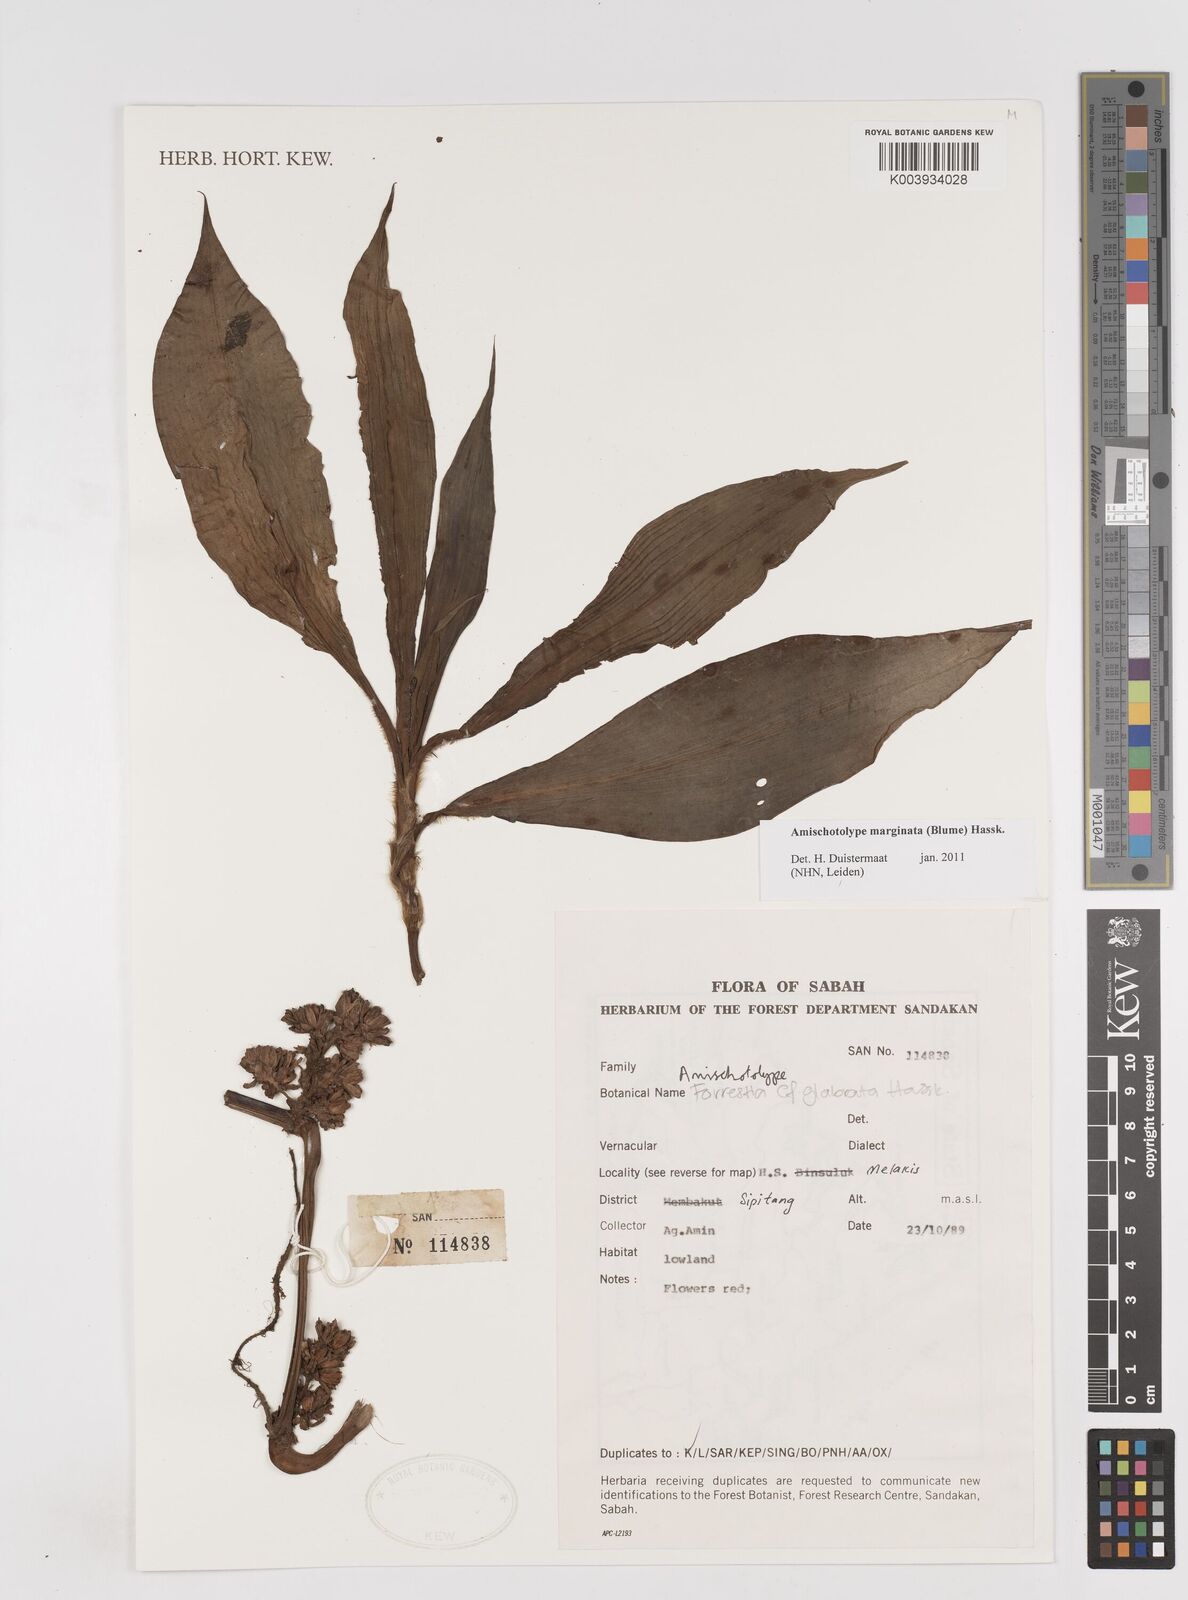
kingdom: Plantae
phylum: Tracheophyta
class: Liliopsida
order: Commelinales
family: Commelinaceae
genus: Amischotolype
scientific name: Amischotolype marginata
